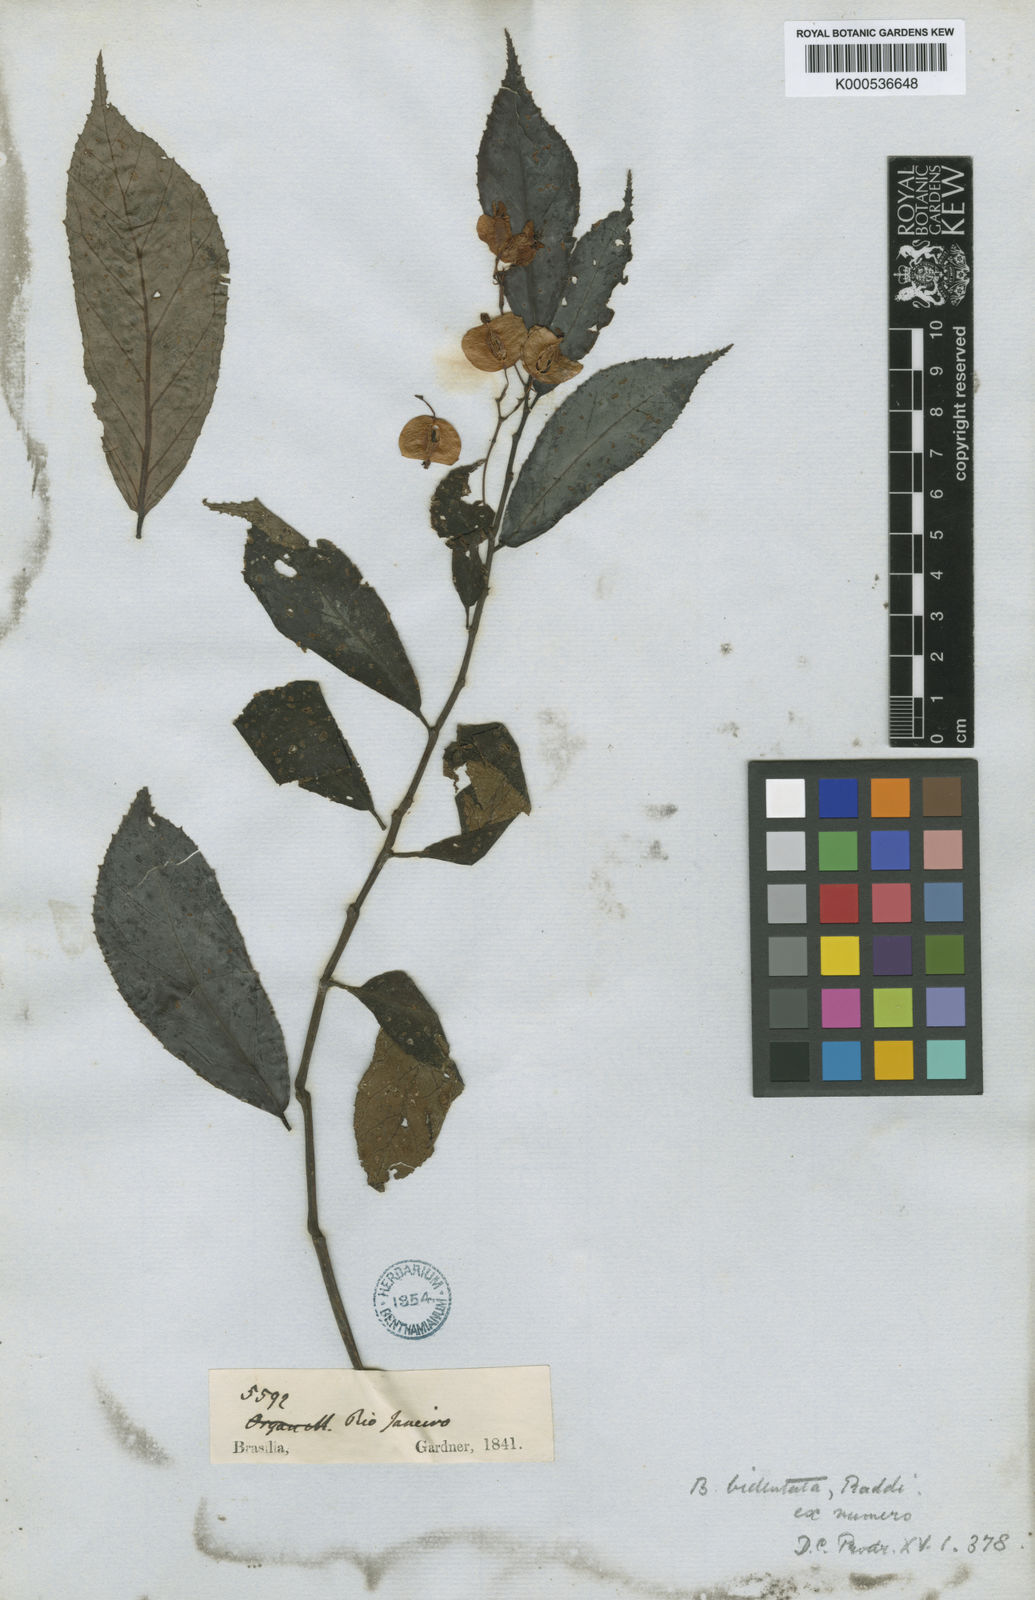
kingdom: Plantae
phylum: Tracheophyta
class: Magnoliopsida
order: Cucurbitales
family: Begoniaceae
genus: Begonia
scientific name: Begonia bidentata
